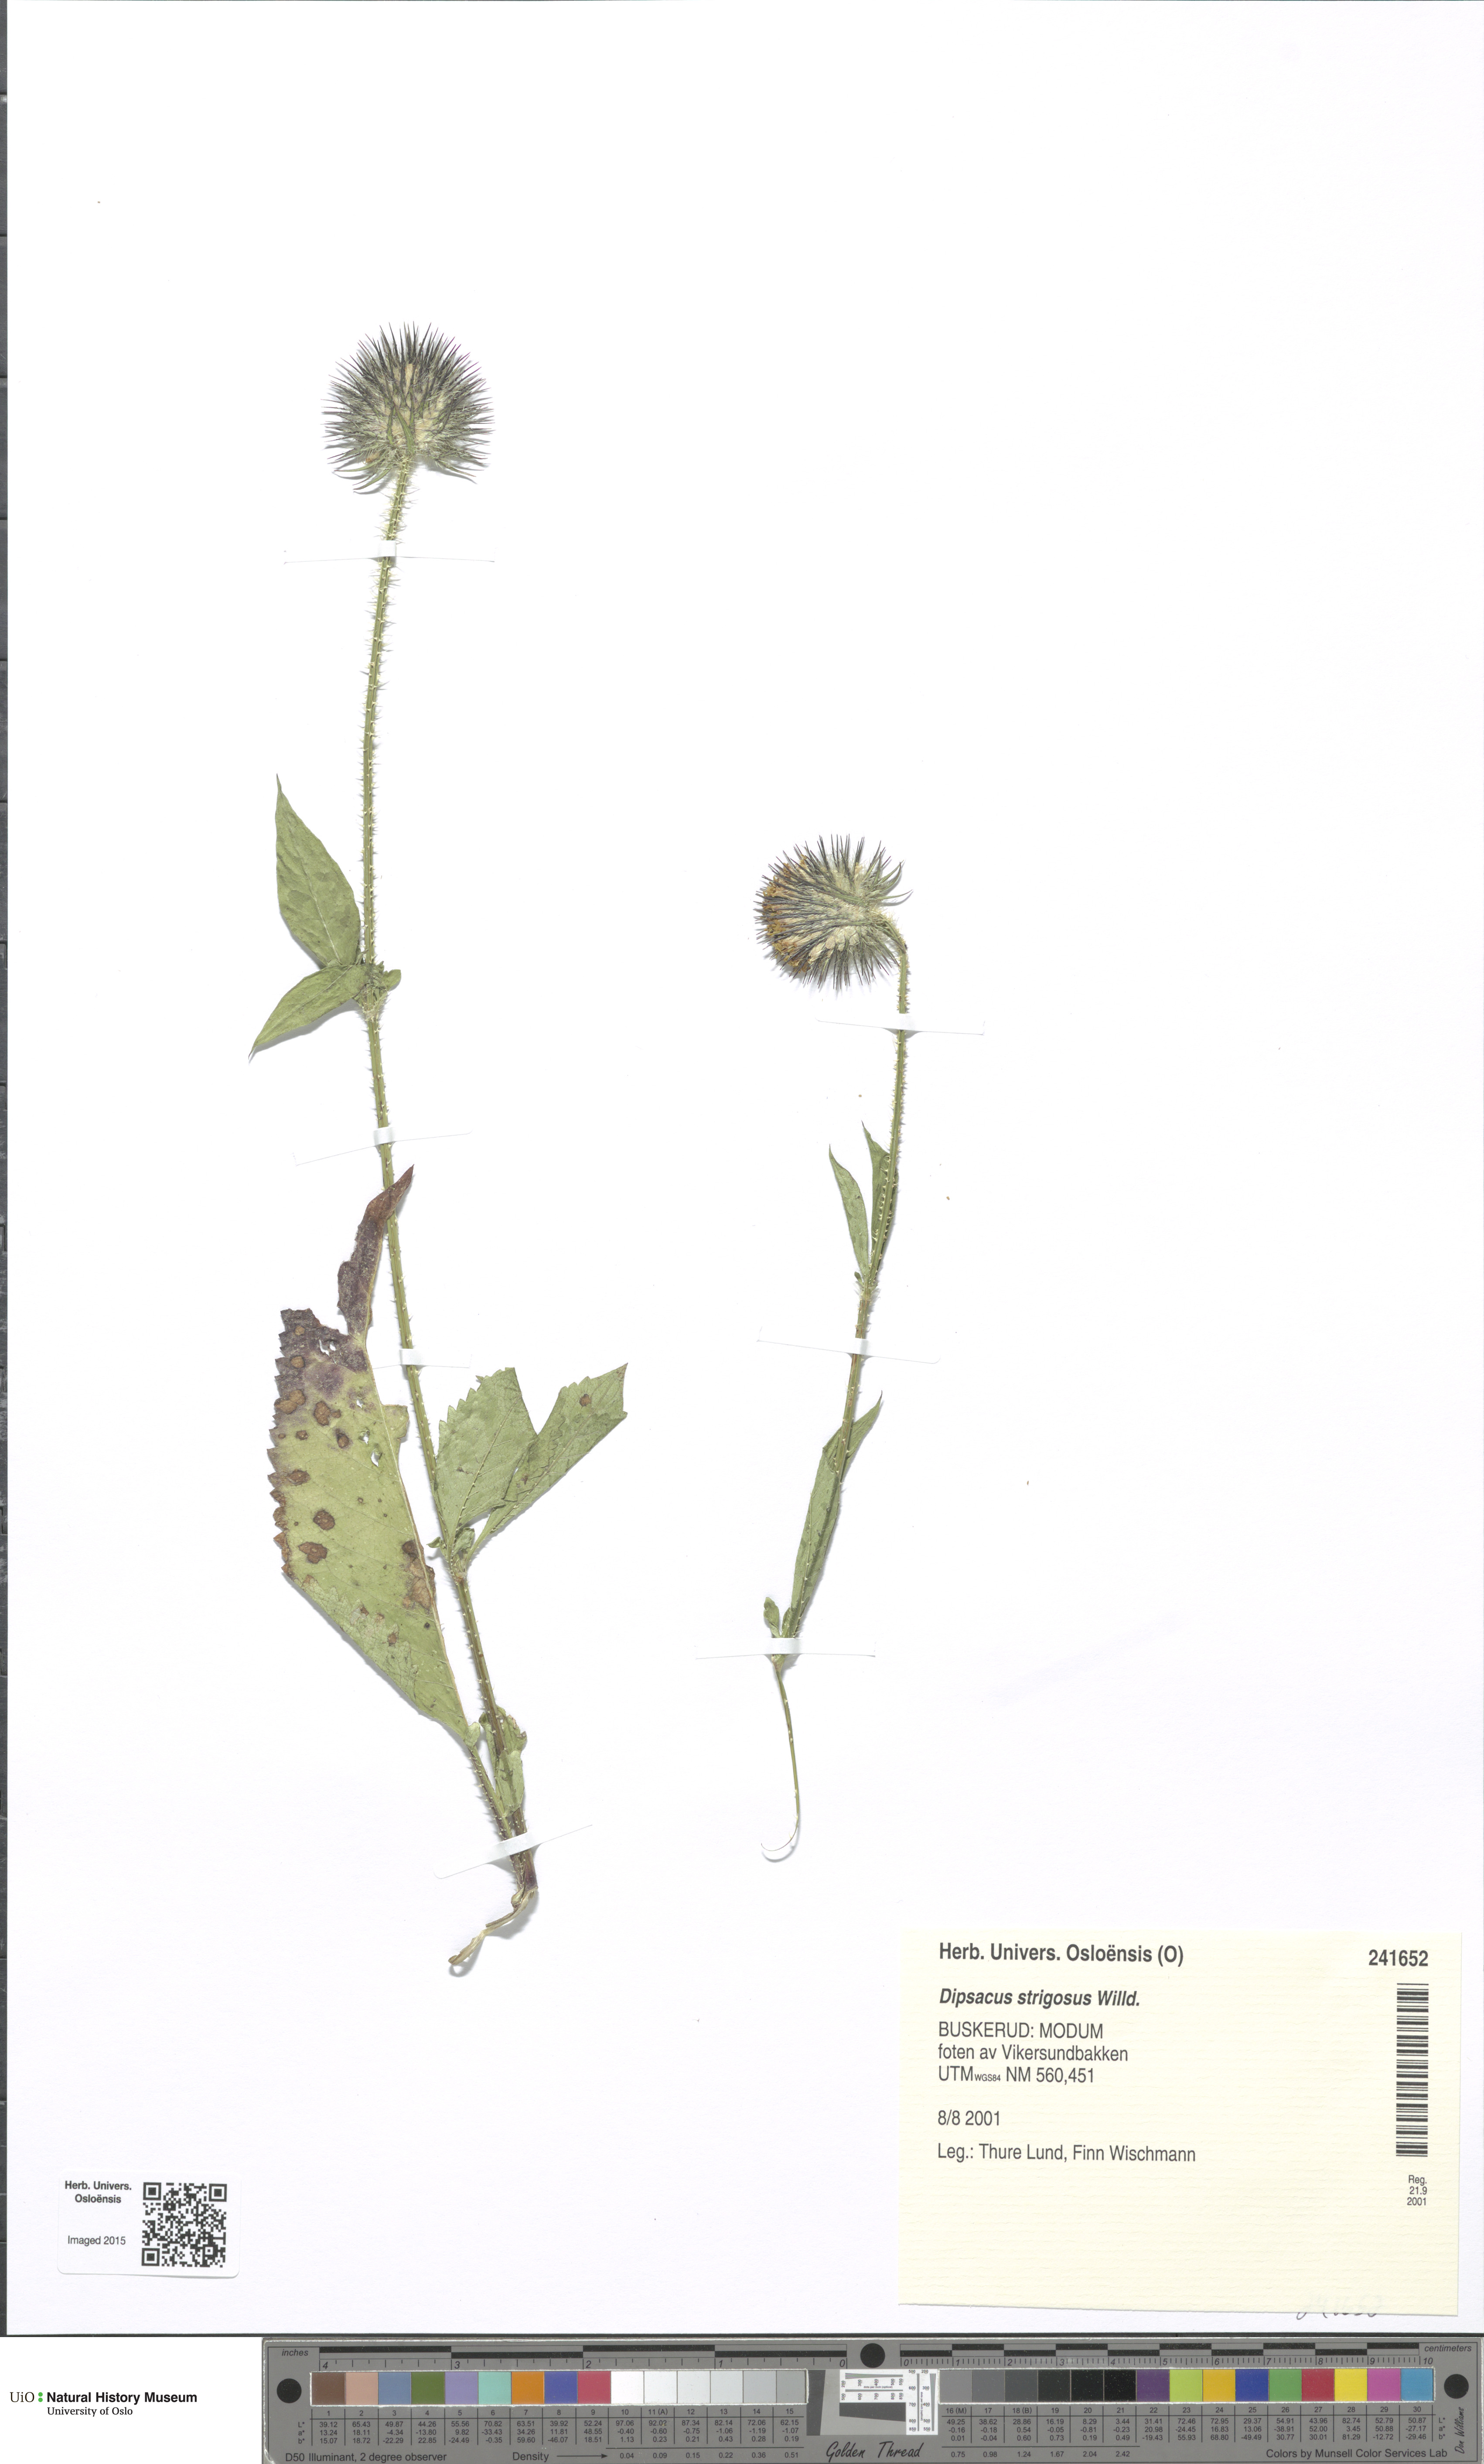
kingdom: Plantae
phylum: Tracheophyta
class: Magnoliopsida
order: Dipsacales
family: Caprifoliaceae
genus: Dipsacus
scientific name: Dipsacus strigosus
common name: Yellow-flowered teasel
